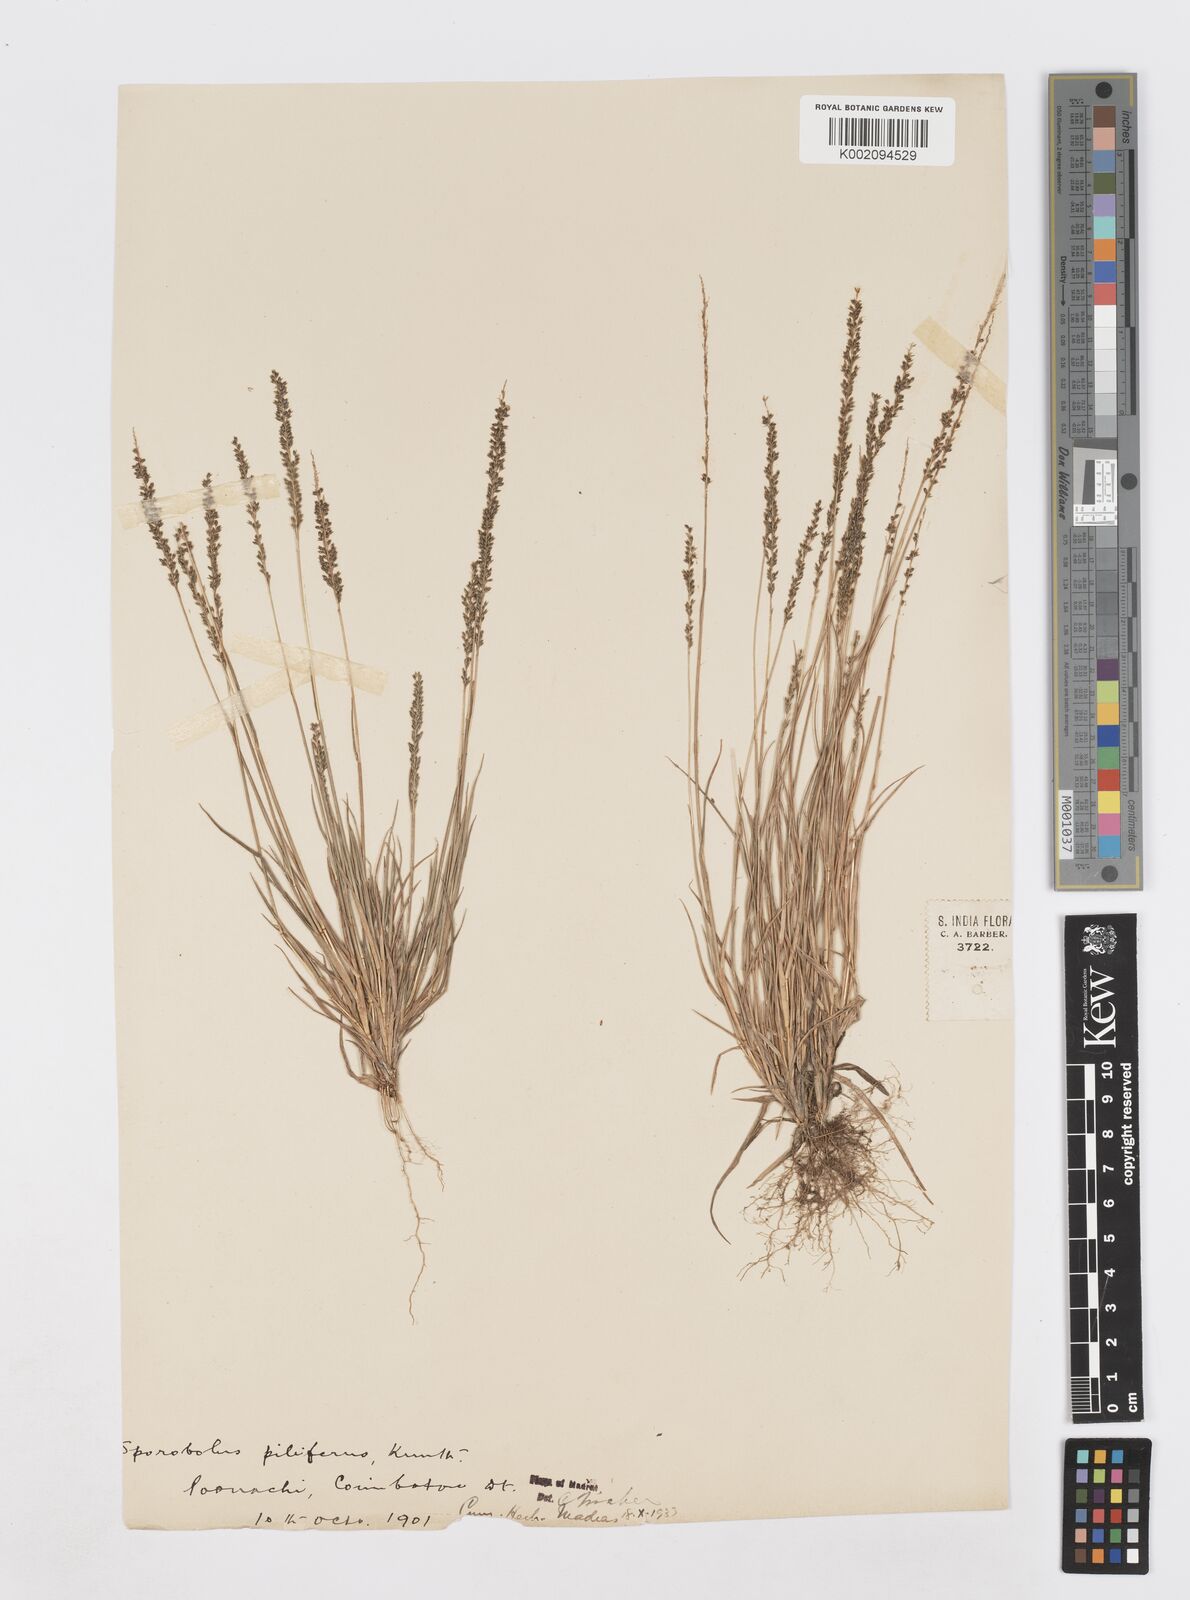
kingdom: Plantae
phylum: Tracheophyta
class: Liliopsida
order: Poales
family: Poaceae
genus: Sporobolus
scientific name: Sporobolus pilifer
